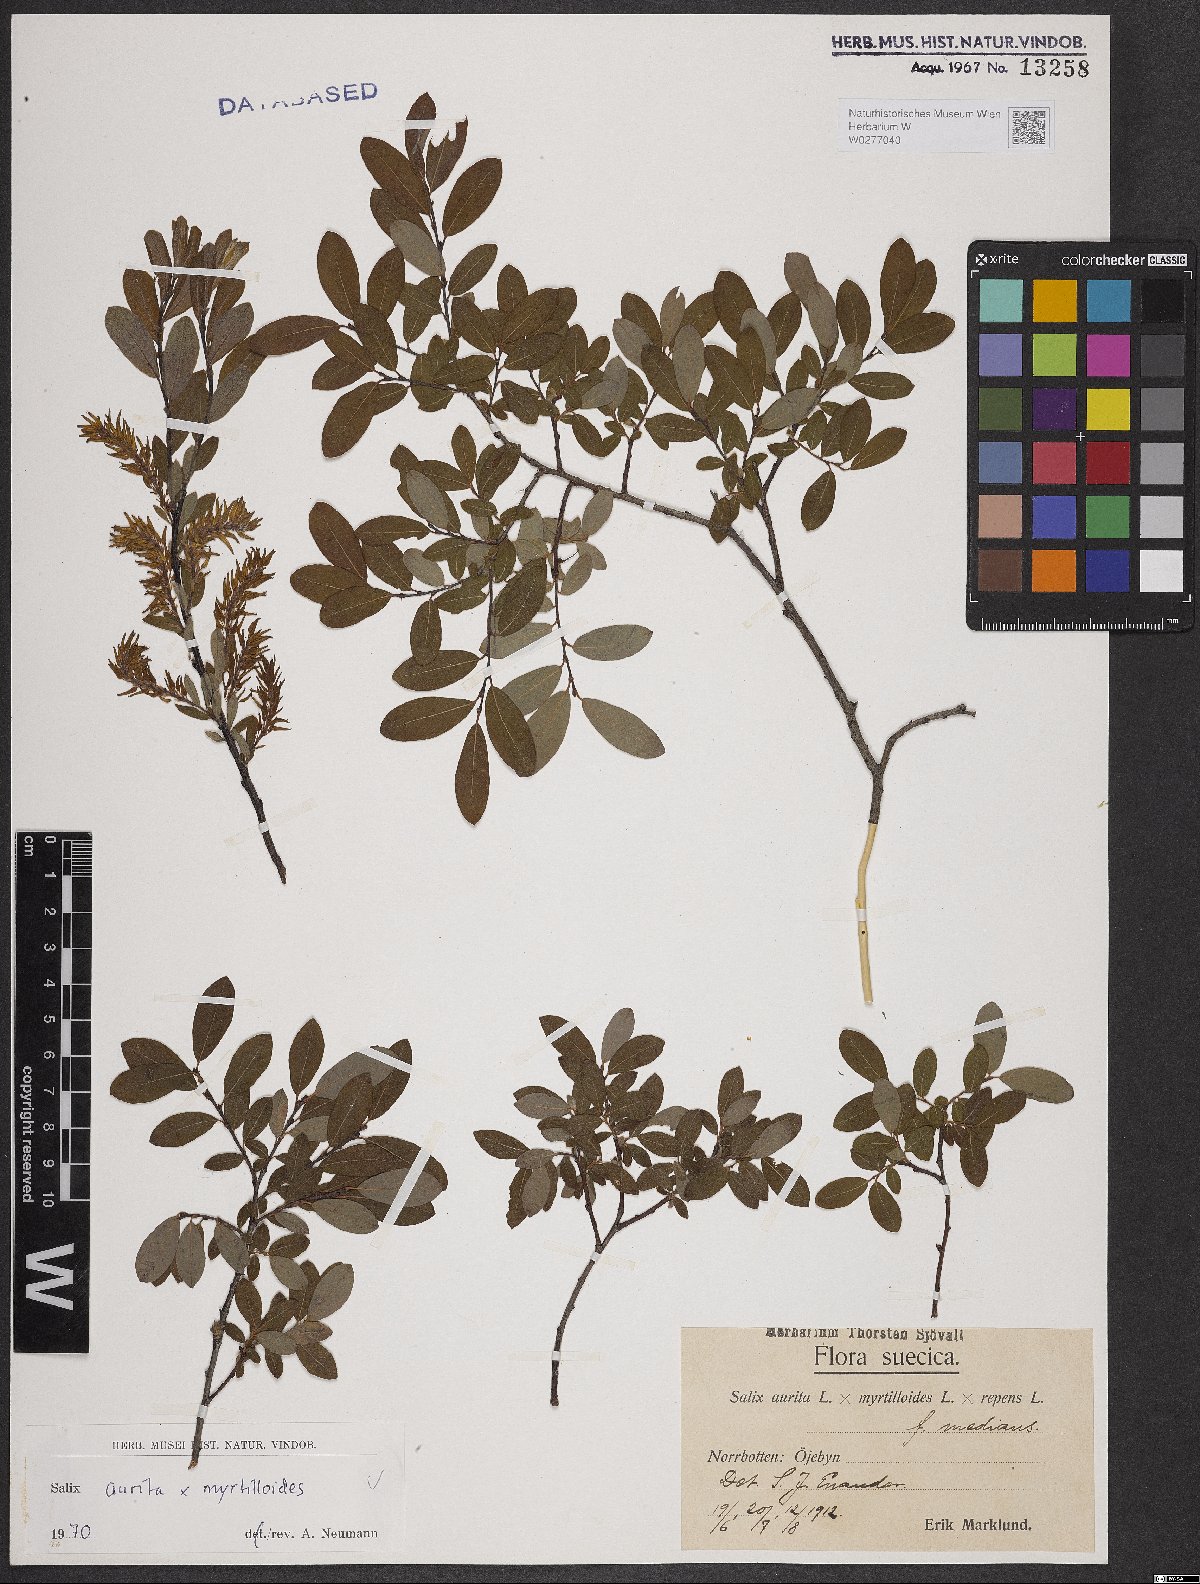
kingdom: Plantae
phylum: Tracheophyta
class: Magnoliopsida
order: Malpighiales
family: Salicaceae
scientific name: Salicaceae
